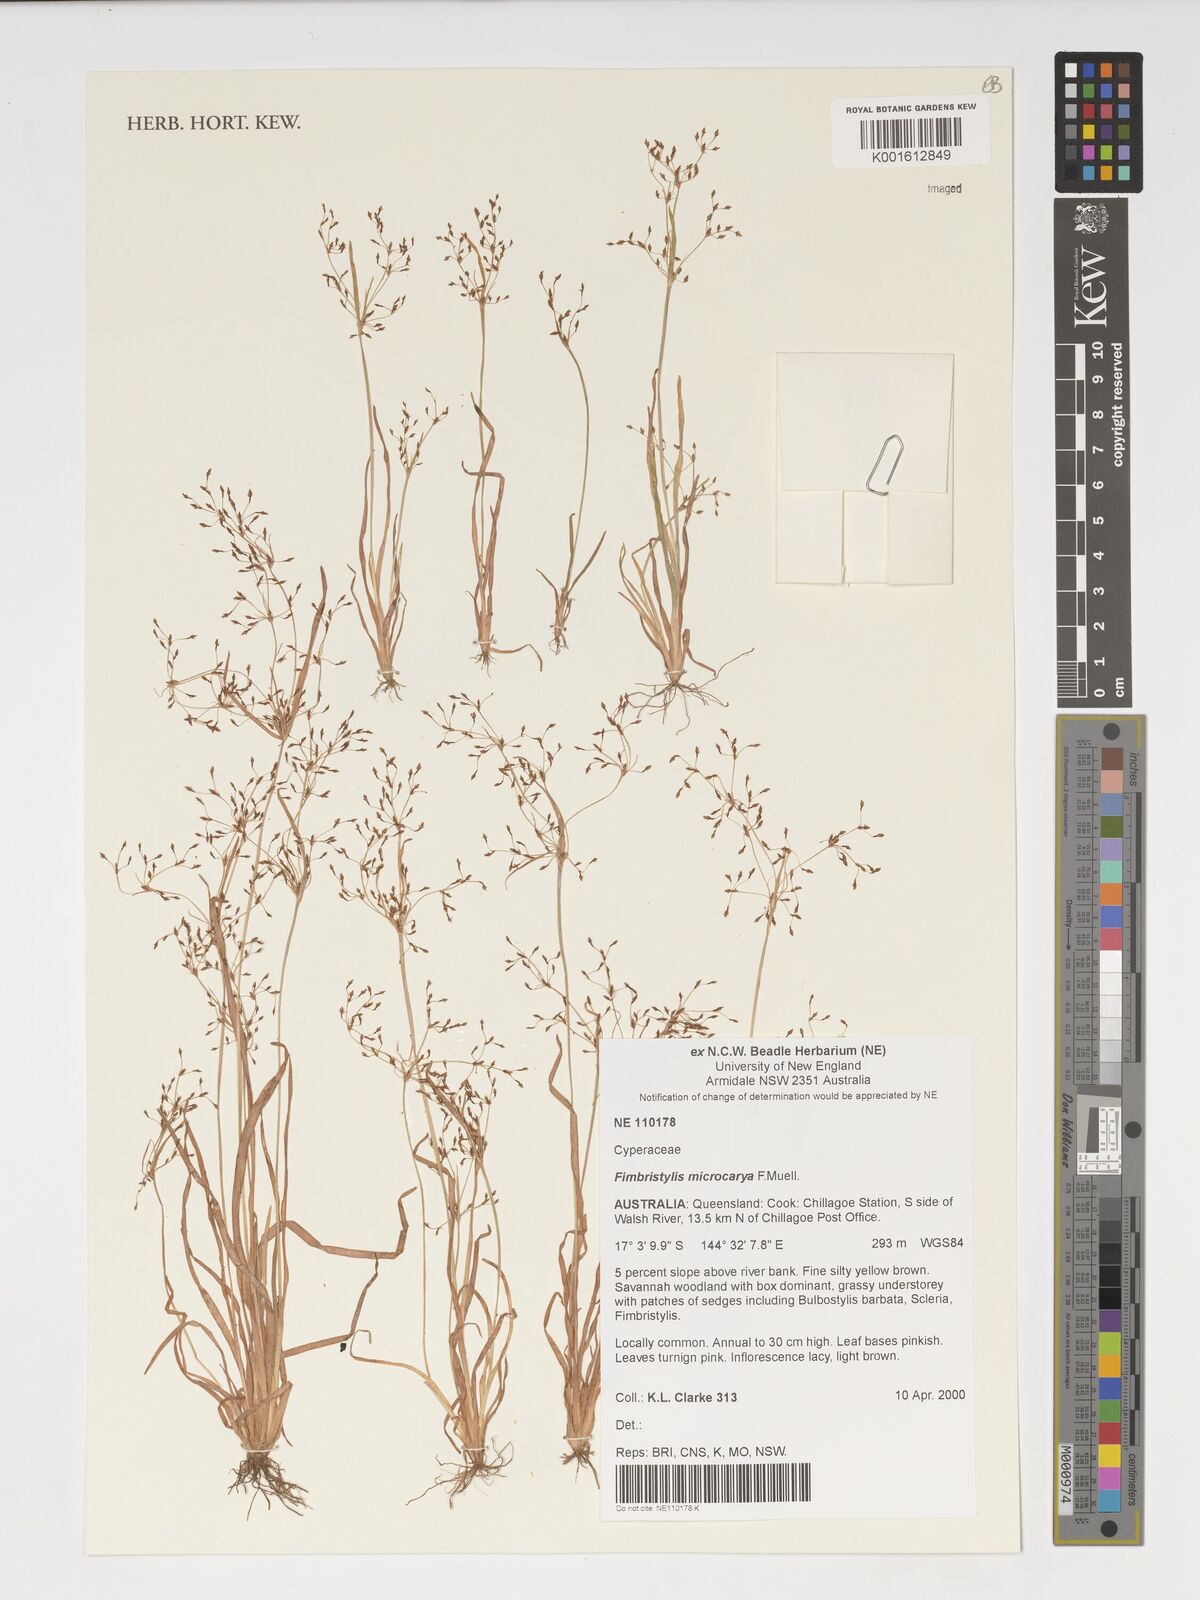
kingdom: Plantae
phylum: Tracheophyta
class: Liliopsida
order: Poales
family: Cyperaceae
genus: Fimbristylis
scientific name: Fimbristylis microcarya
